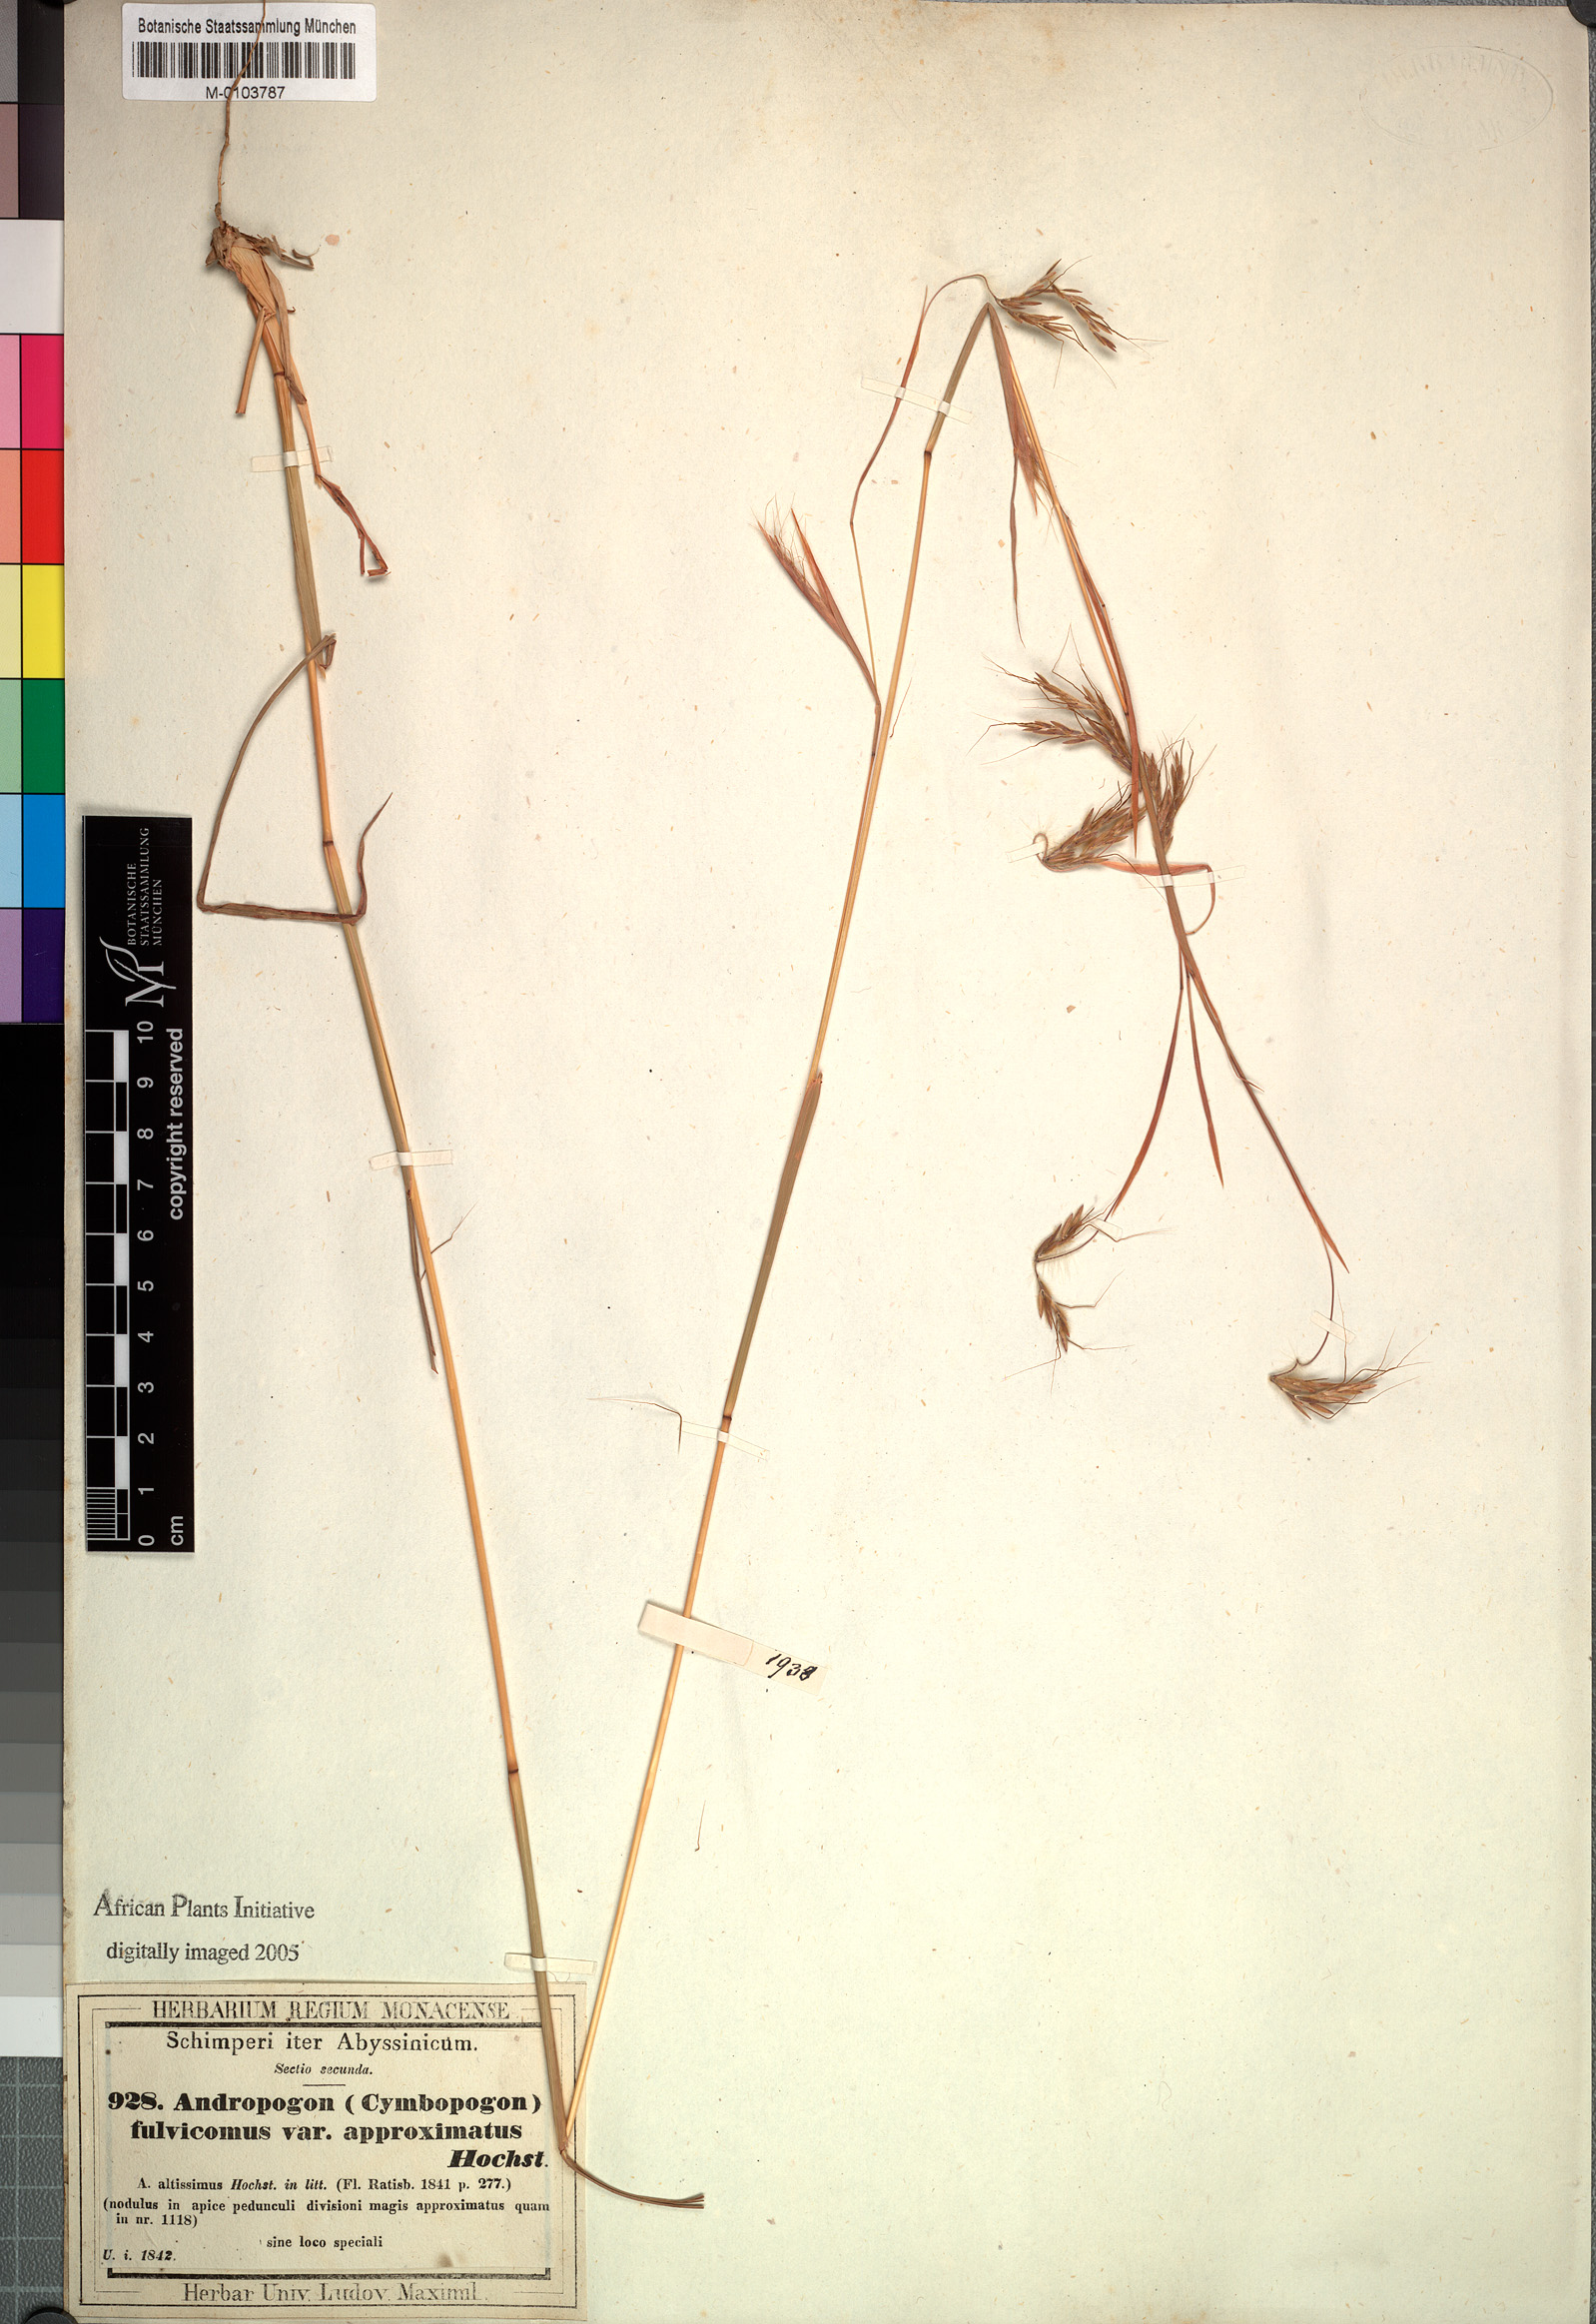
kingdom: Plantae
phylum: Tracheophyta
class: Liliopsida
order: Poales
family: Poaceae
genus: Hyparrhenia
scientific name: Hyparrhenia rufa
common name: Jaraguagrass
